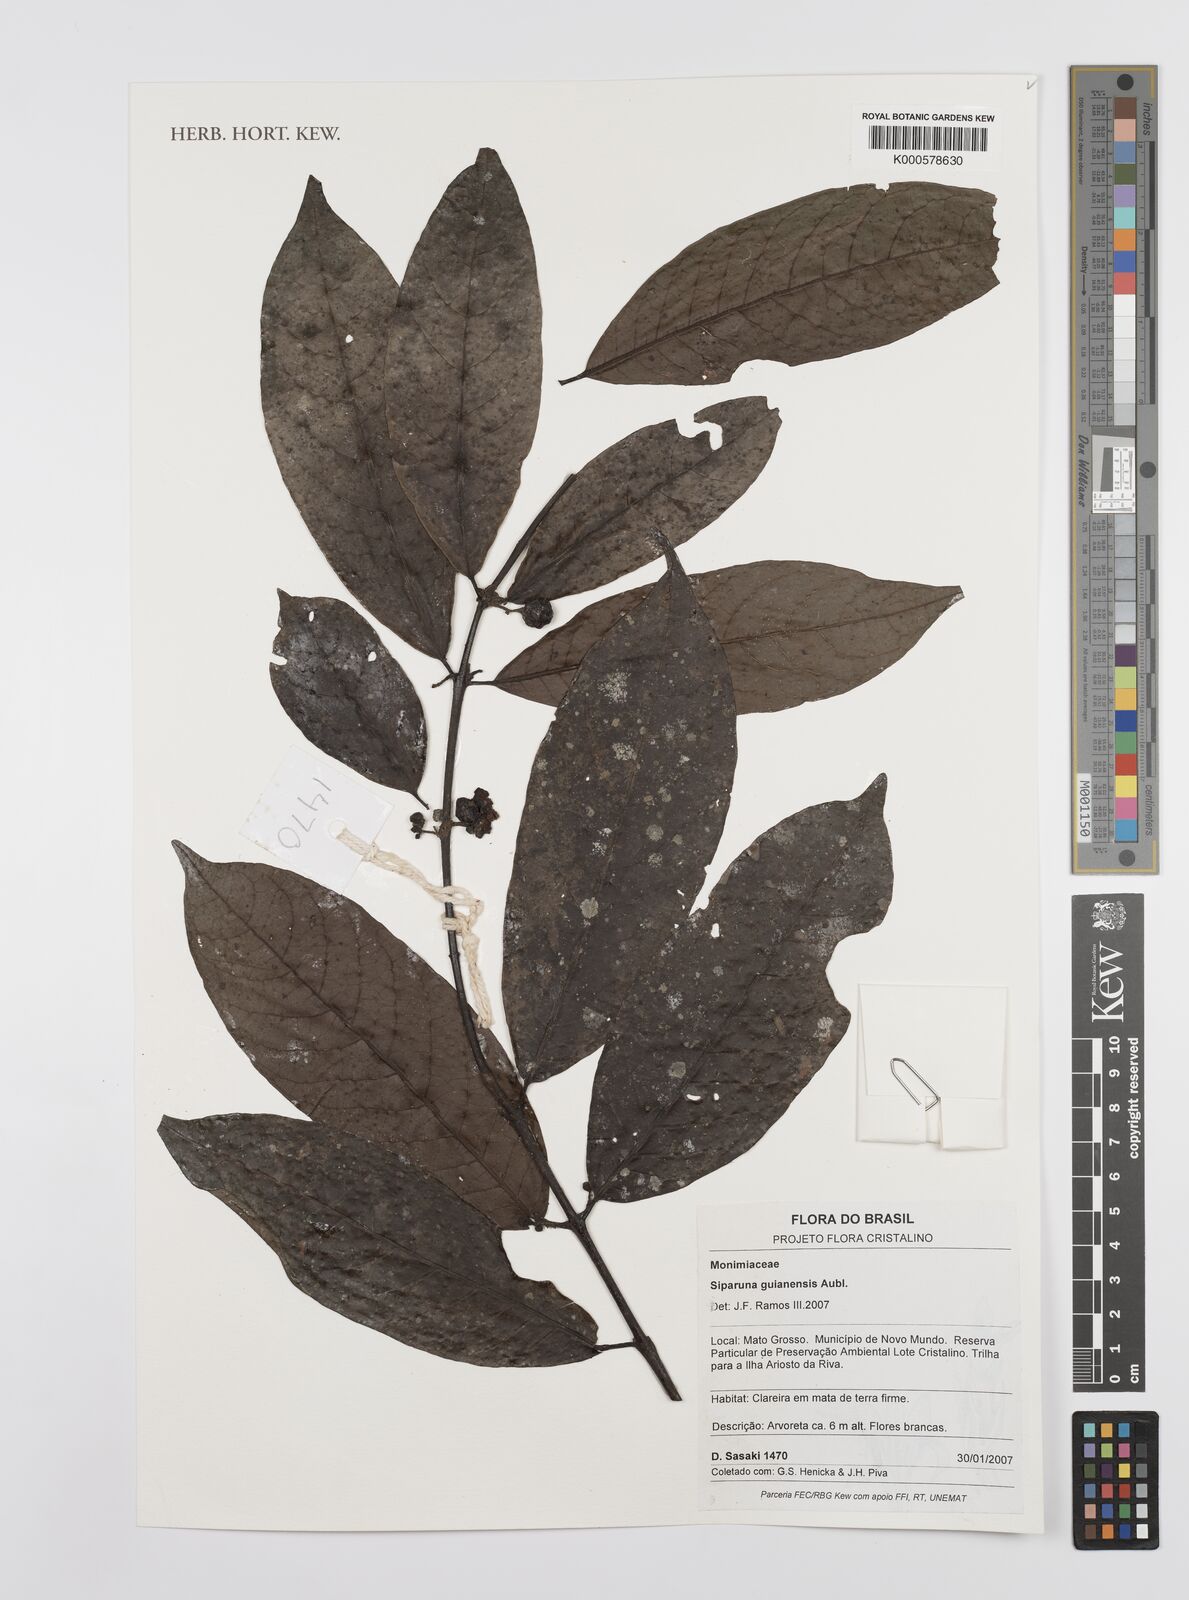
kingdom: Plantae
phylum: Tracheophyta
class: Magnoliopsida
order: Laurales
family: Siparunaceae
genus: Siparuna
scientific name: Siparuna guianensis
